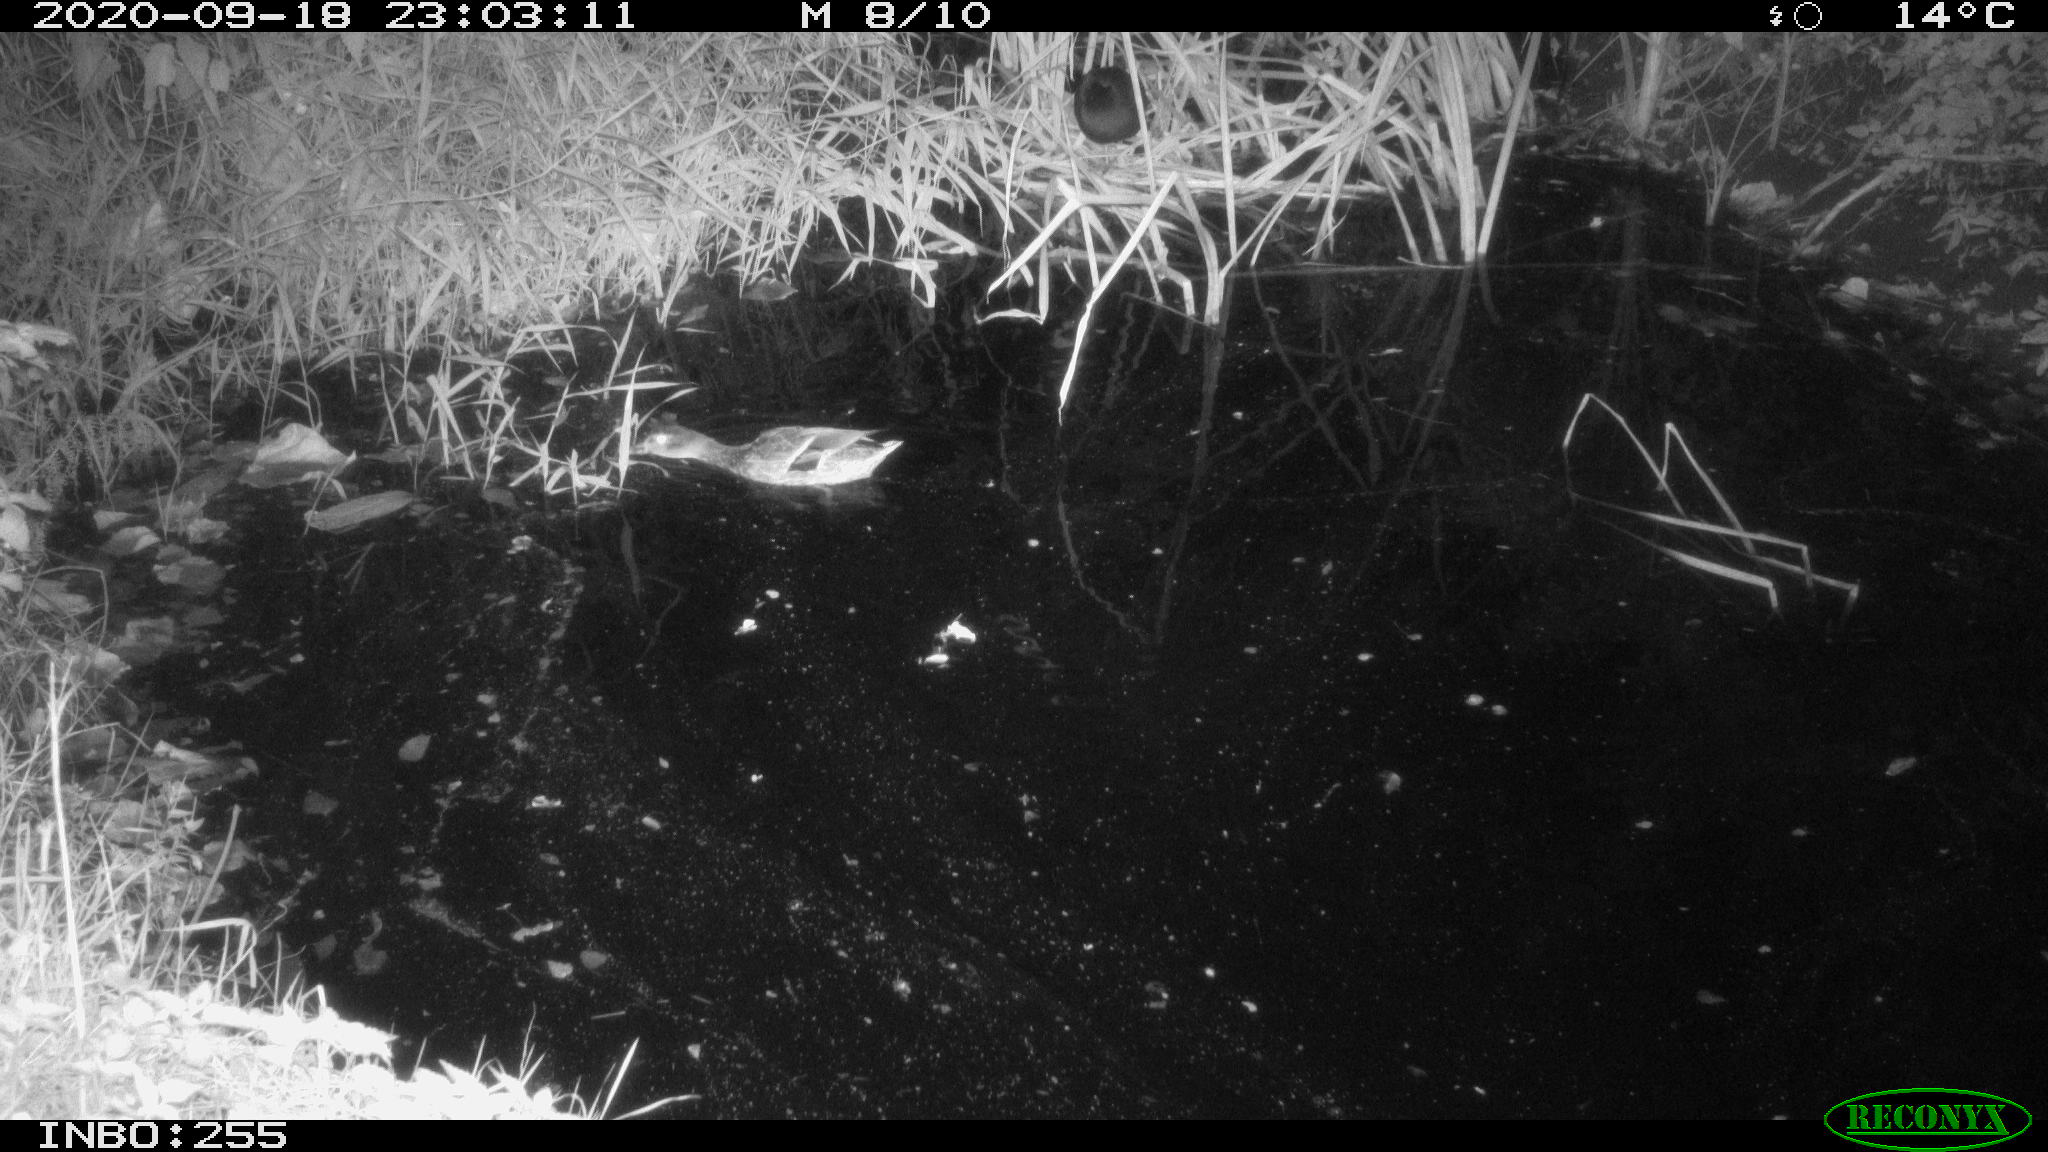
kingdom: Animalia
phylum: Chordata
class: Aves
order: Anseriformes
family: Anatidae
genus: Anas
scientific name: Anas platyrhynchos
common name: Mallard
